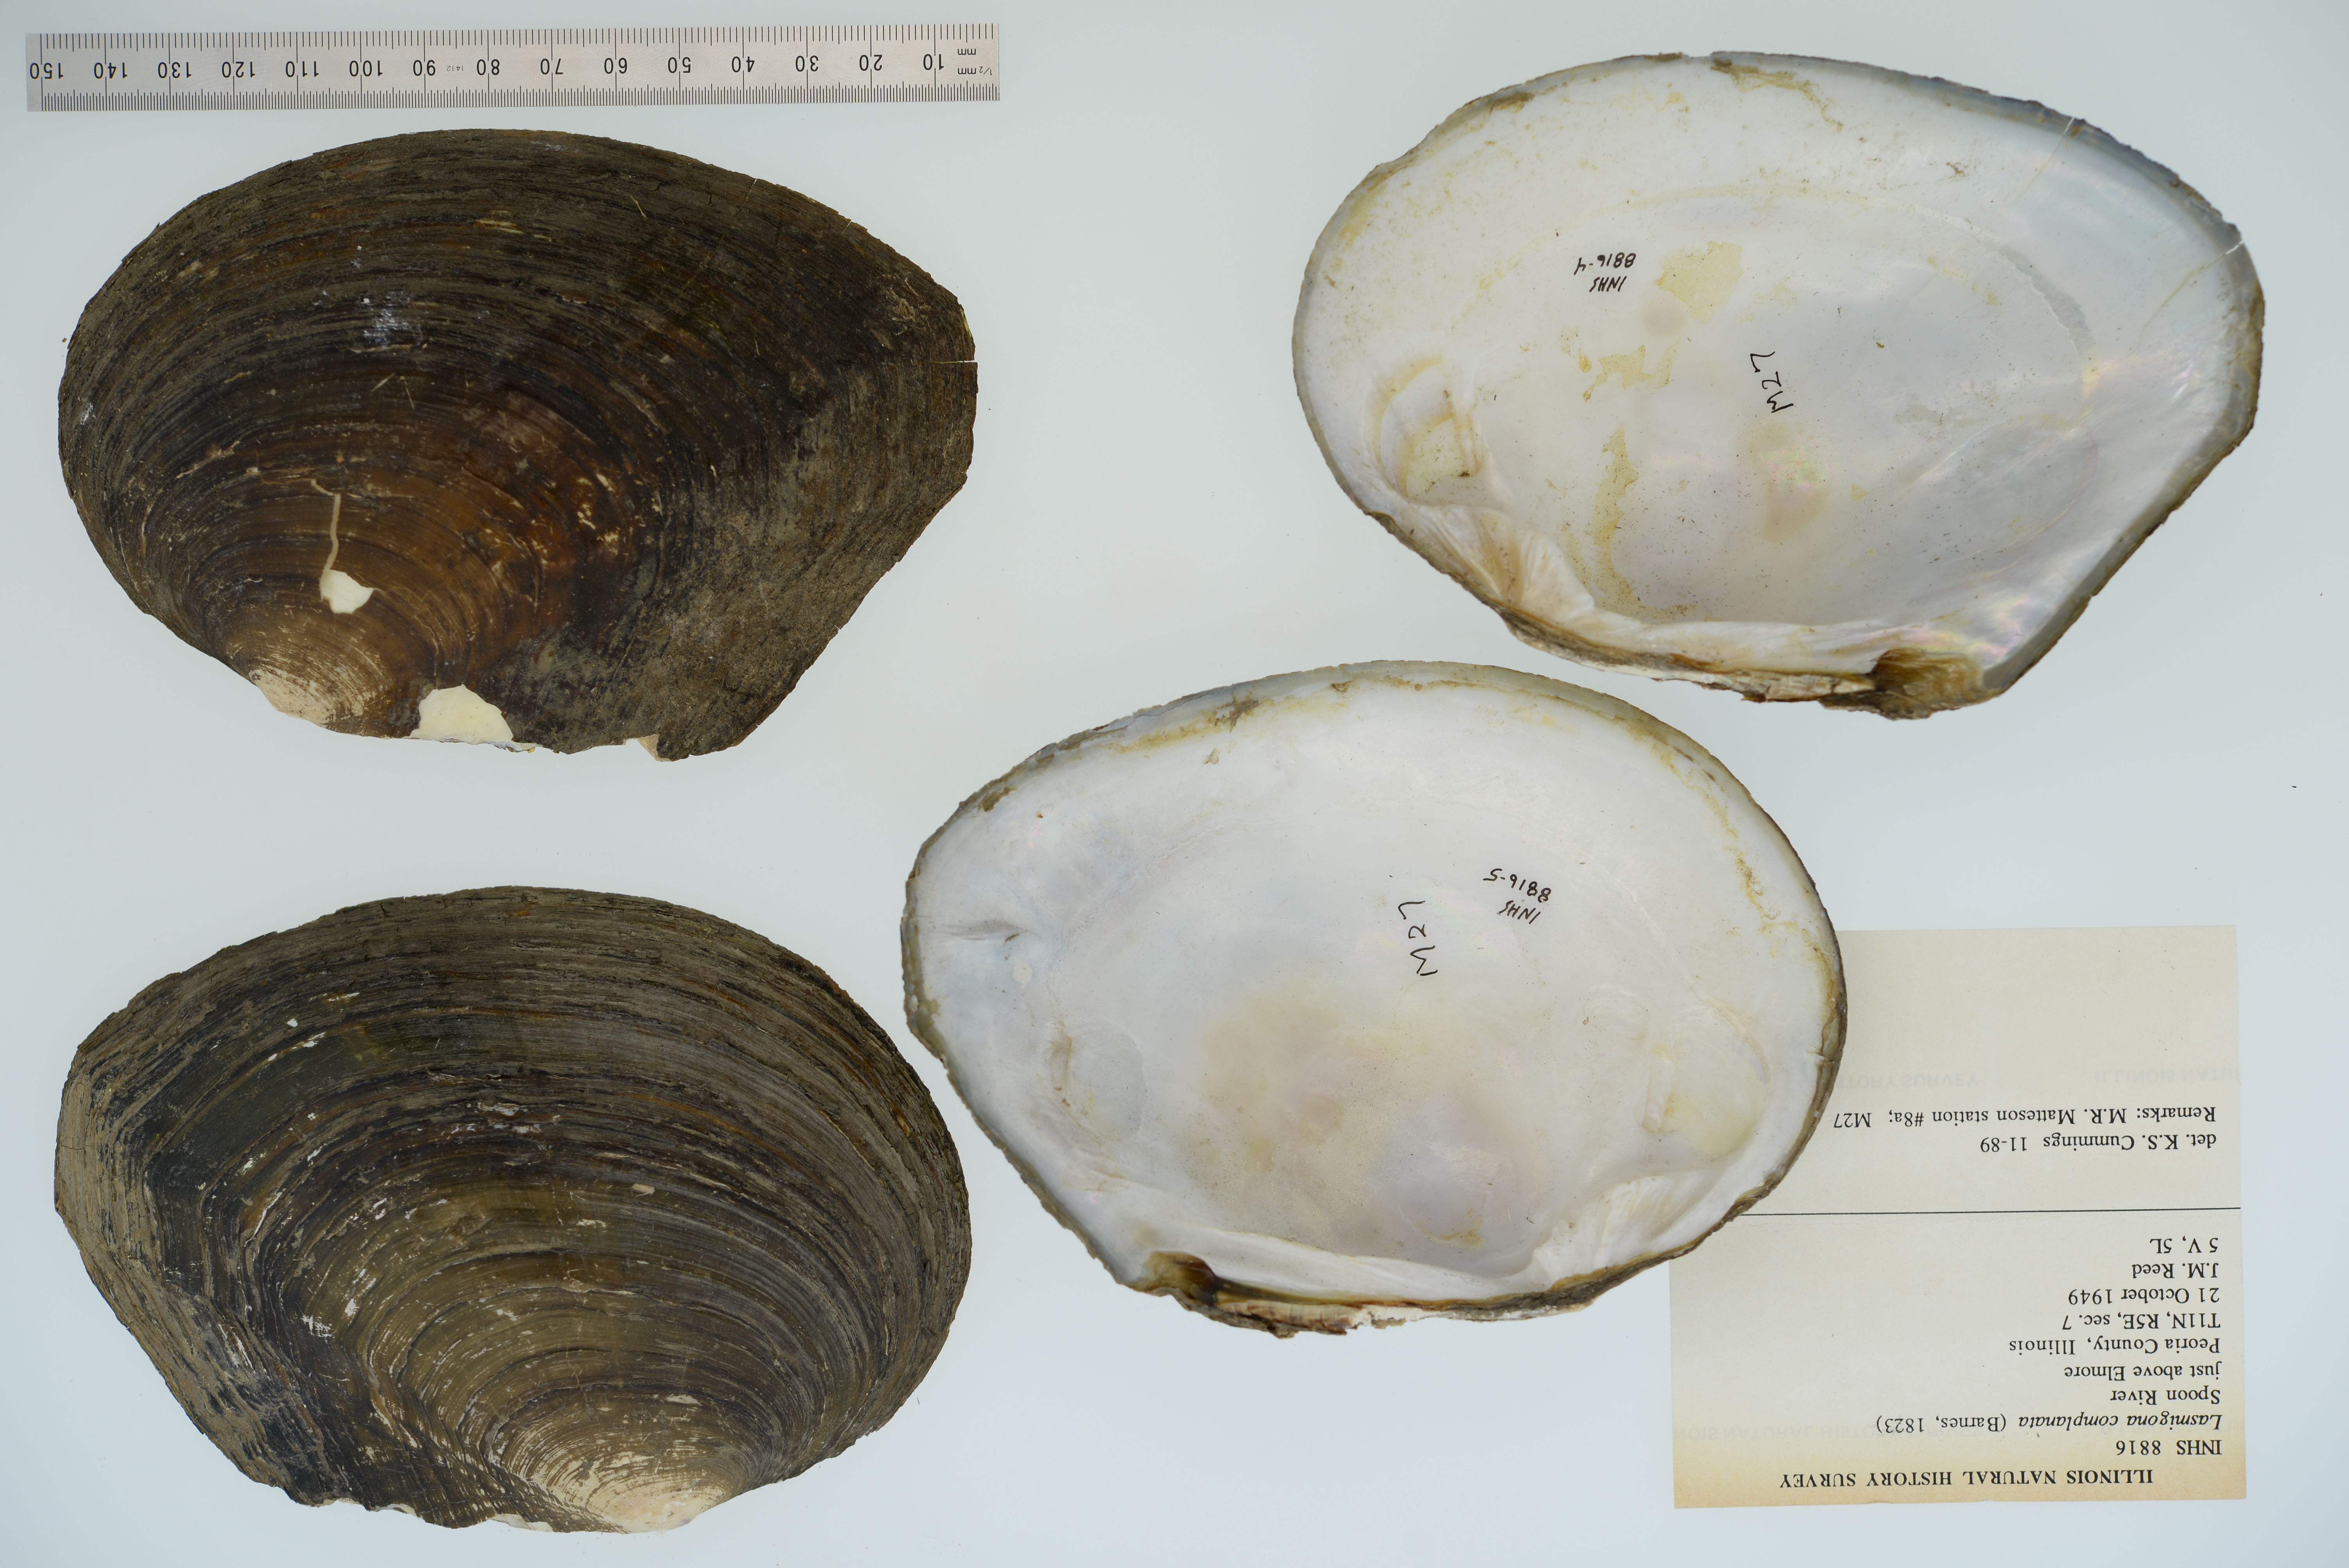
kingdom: Animalia
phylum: Mollusca
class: Bivalvia
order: Unionida
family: Unionidae
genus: Lasmigona
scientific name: Lasmigona complanata
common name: White heelsplitter
